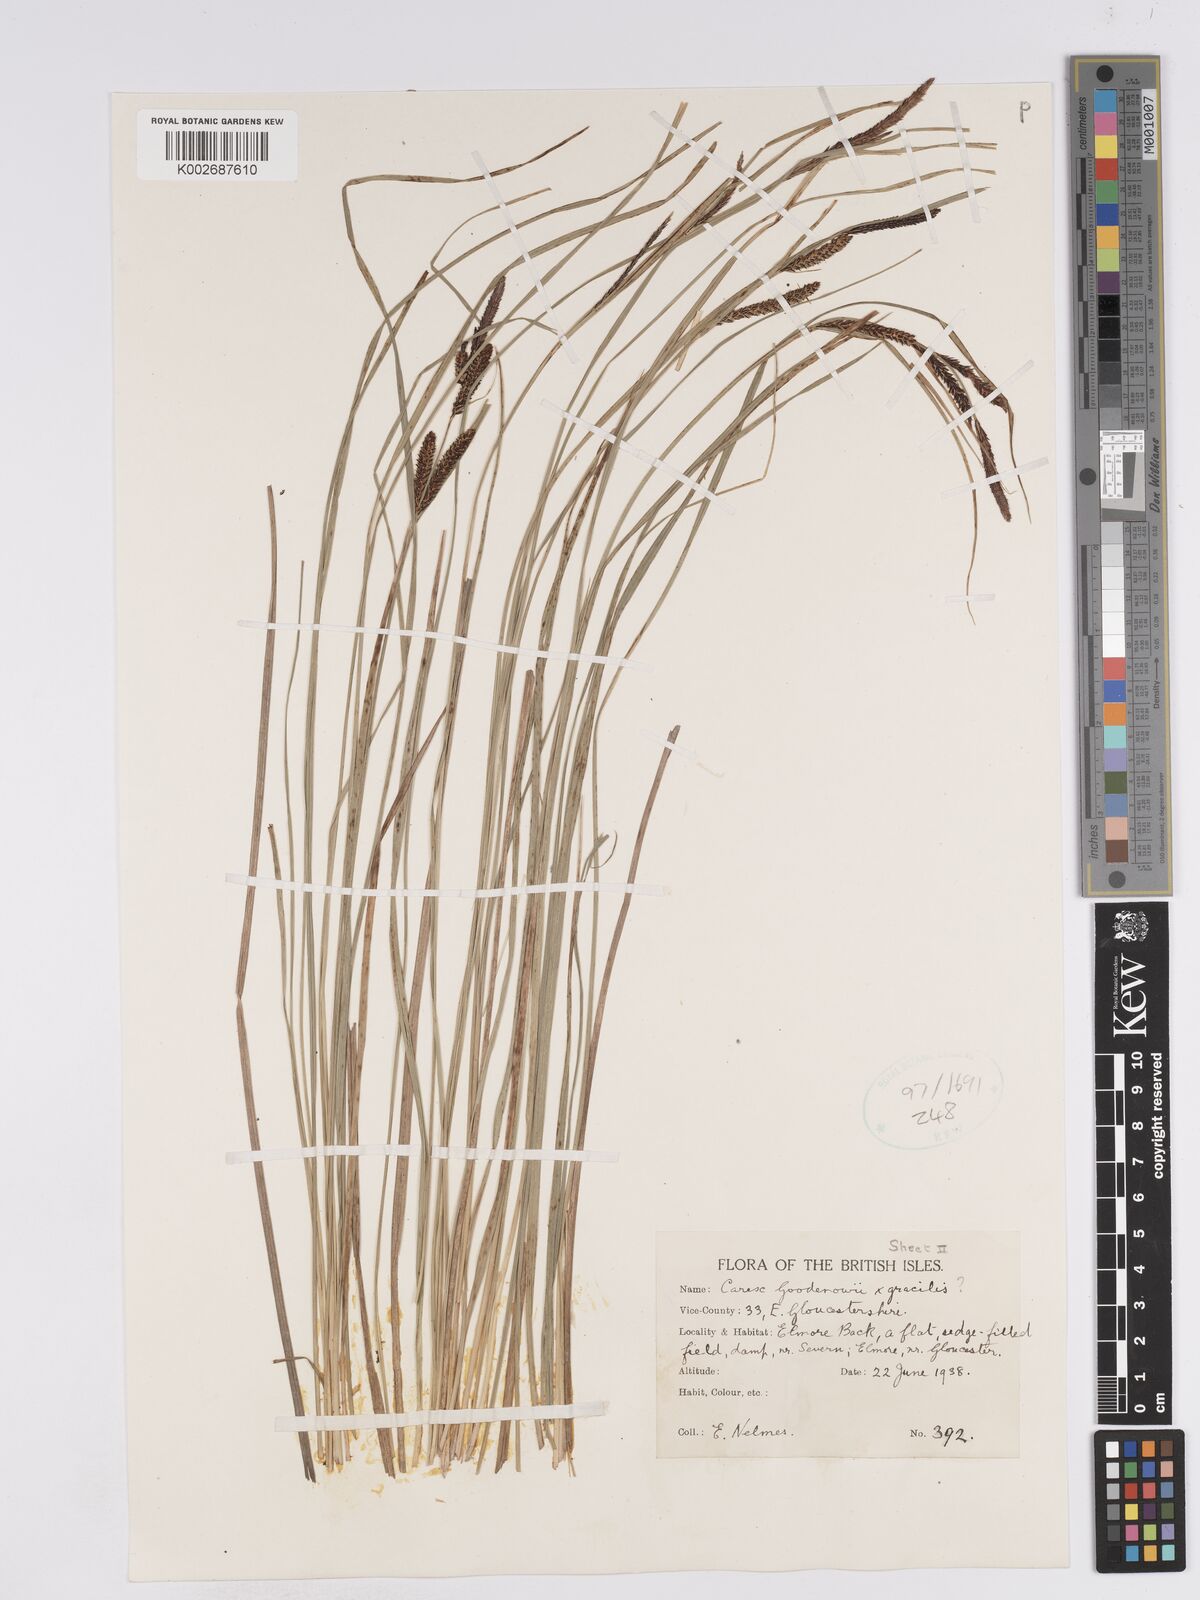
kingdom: Plantae
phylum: Tracheophyta
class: Liliopsida
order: Poales
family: Cyperaceae
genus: Carex
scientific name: Carex nigra
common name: Common sedge
